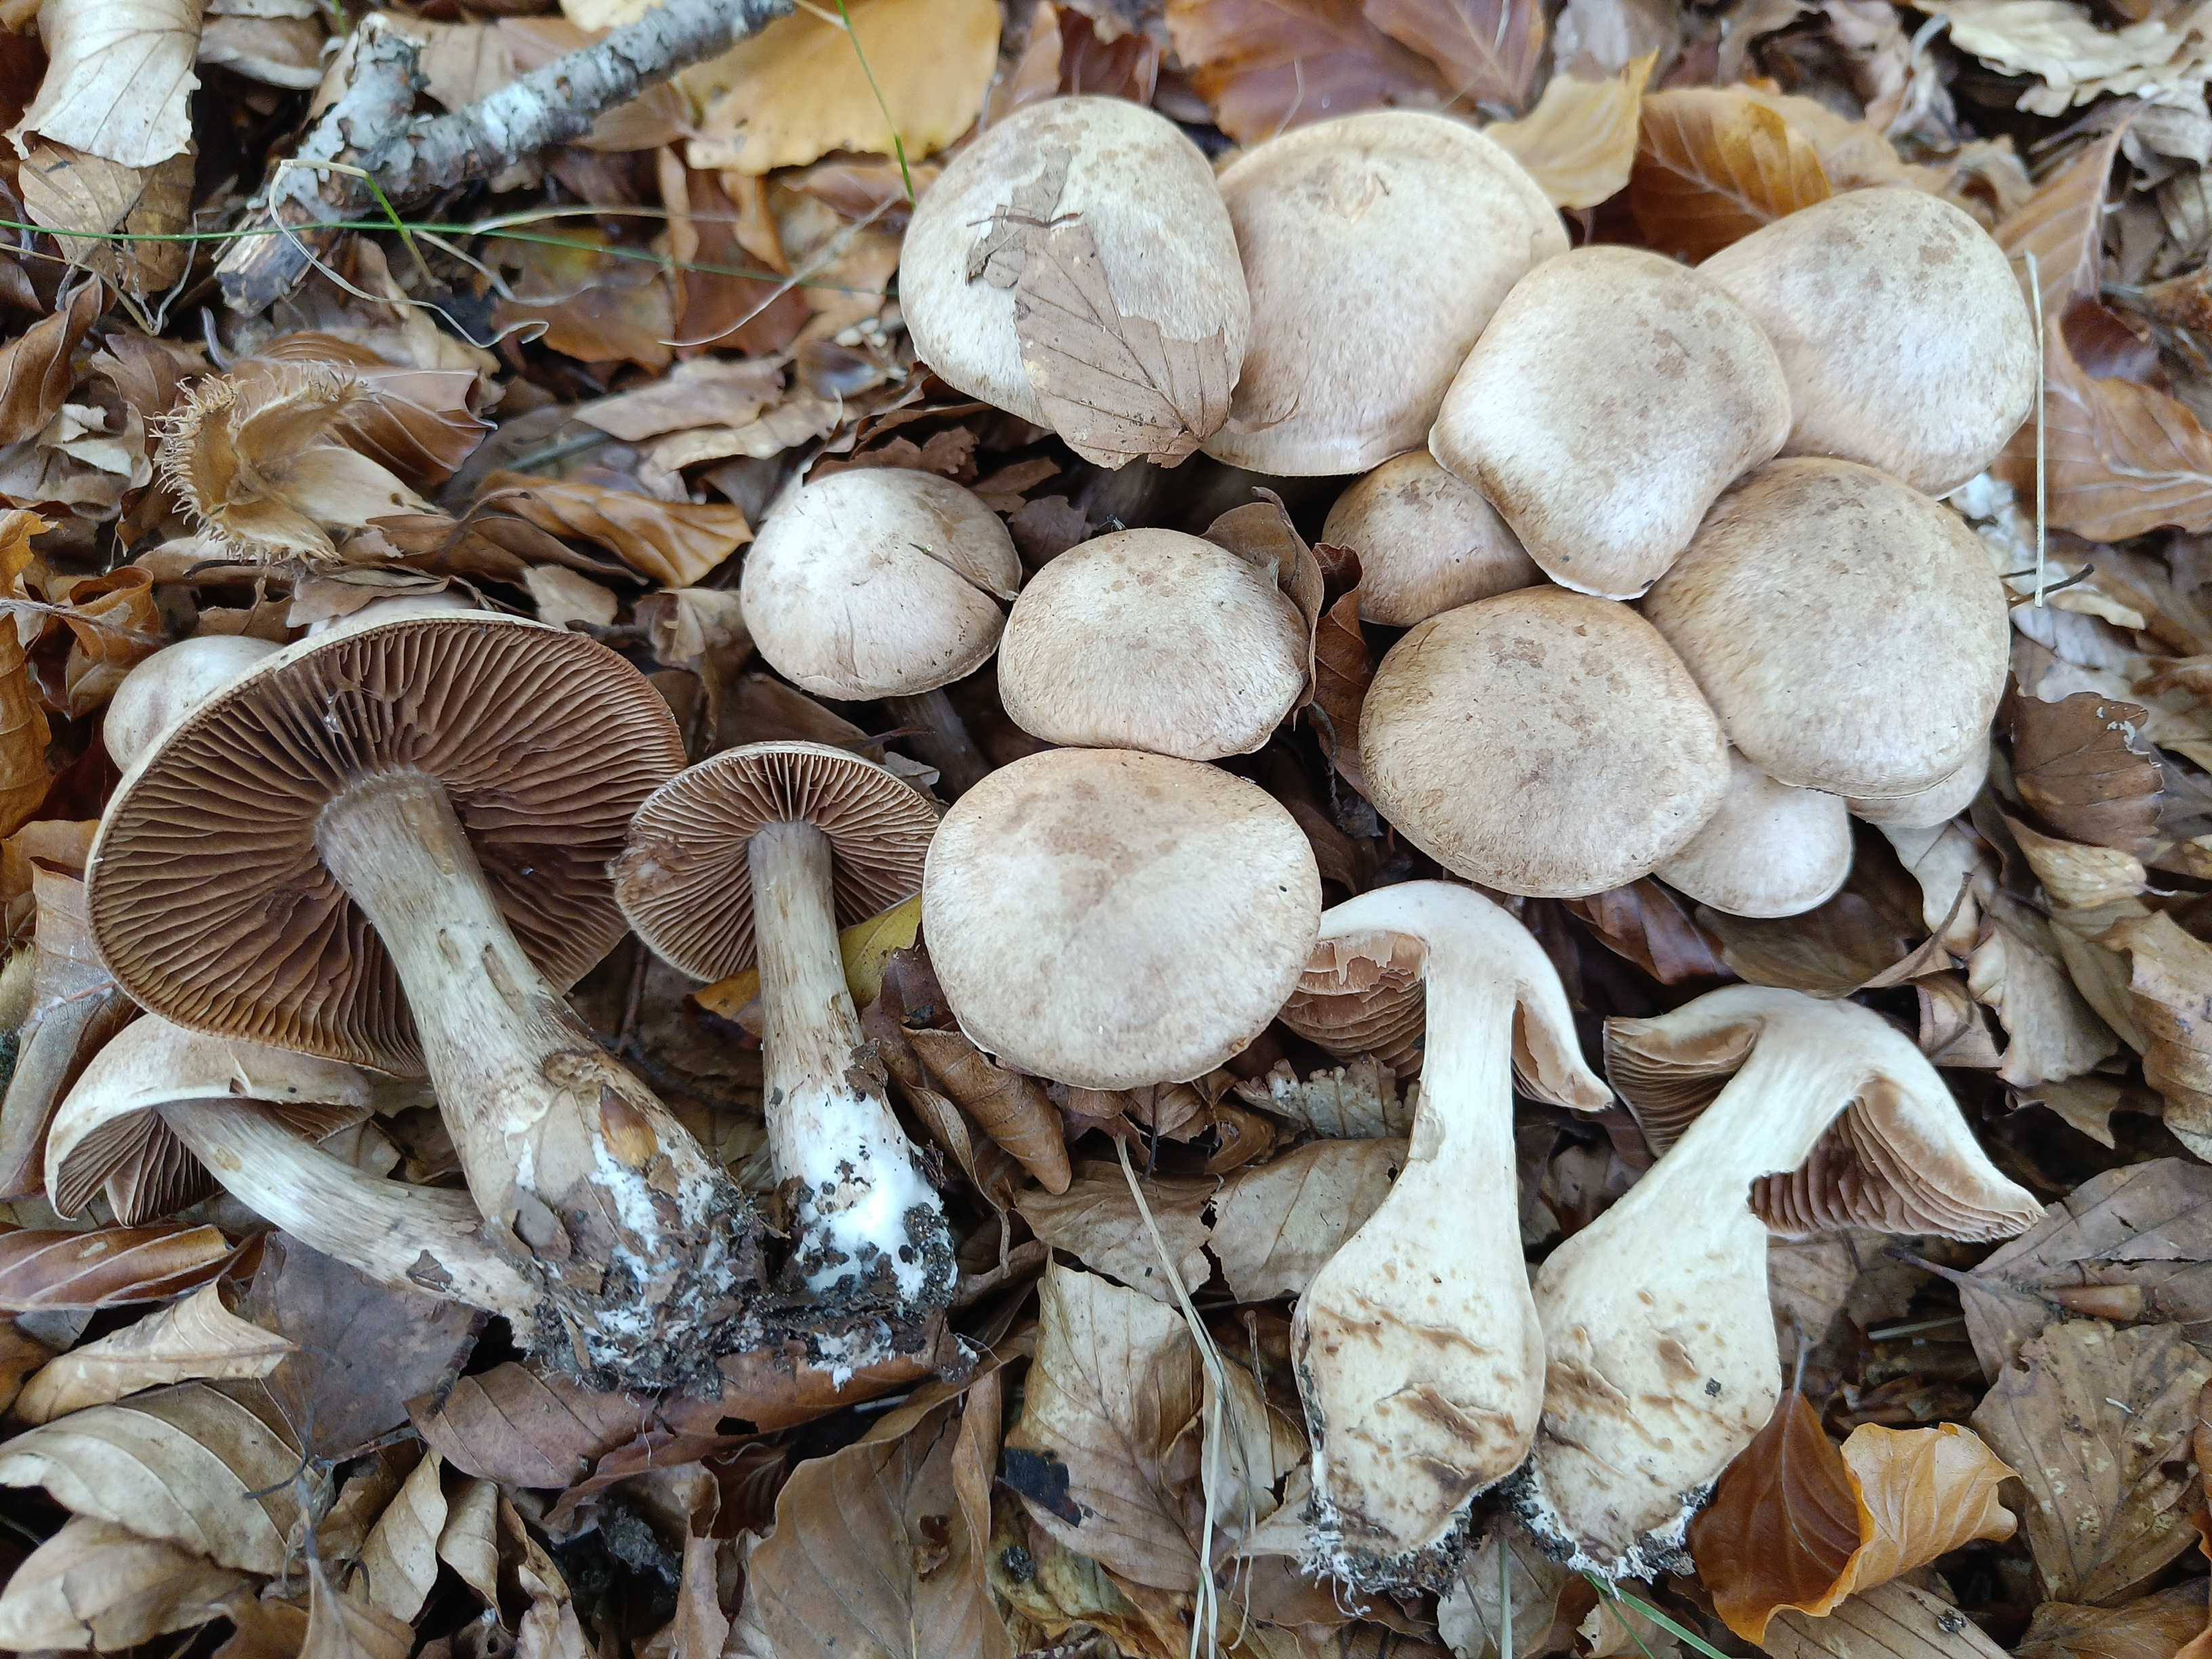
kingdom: Fungi
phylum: Basidiomycota
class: Agaricomycetes
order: Agaricales
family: Cortinariaceae
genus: Cortinarius
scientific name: Cortinarius suillonigrescens
